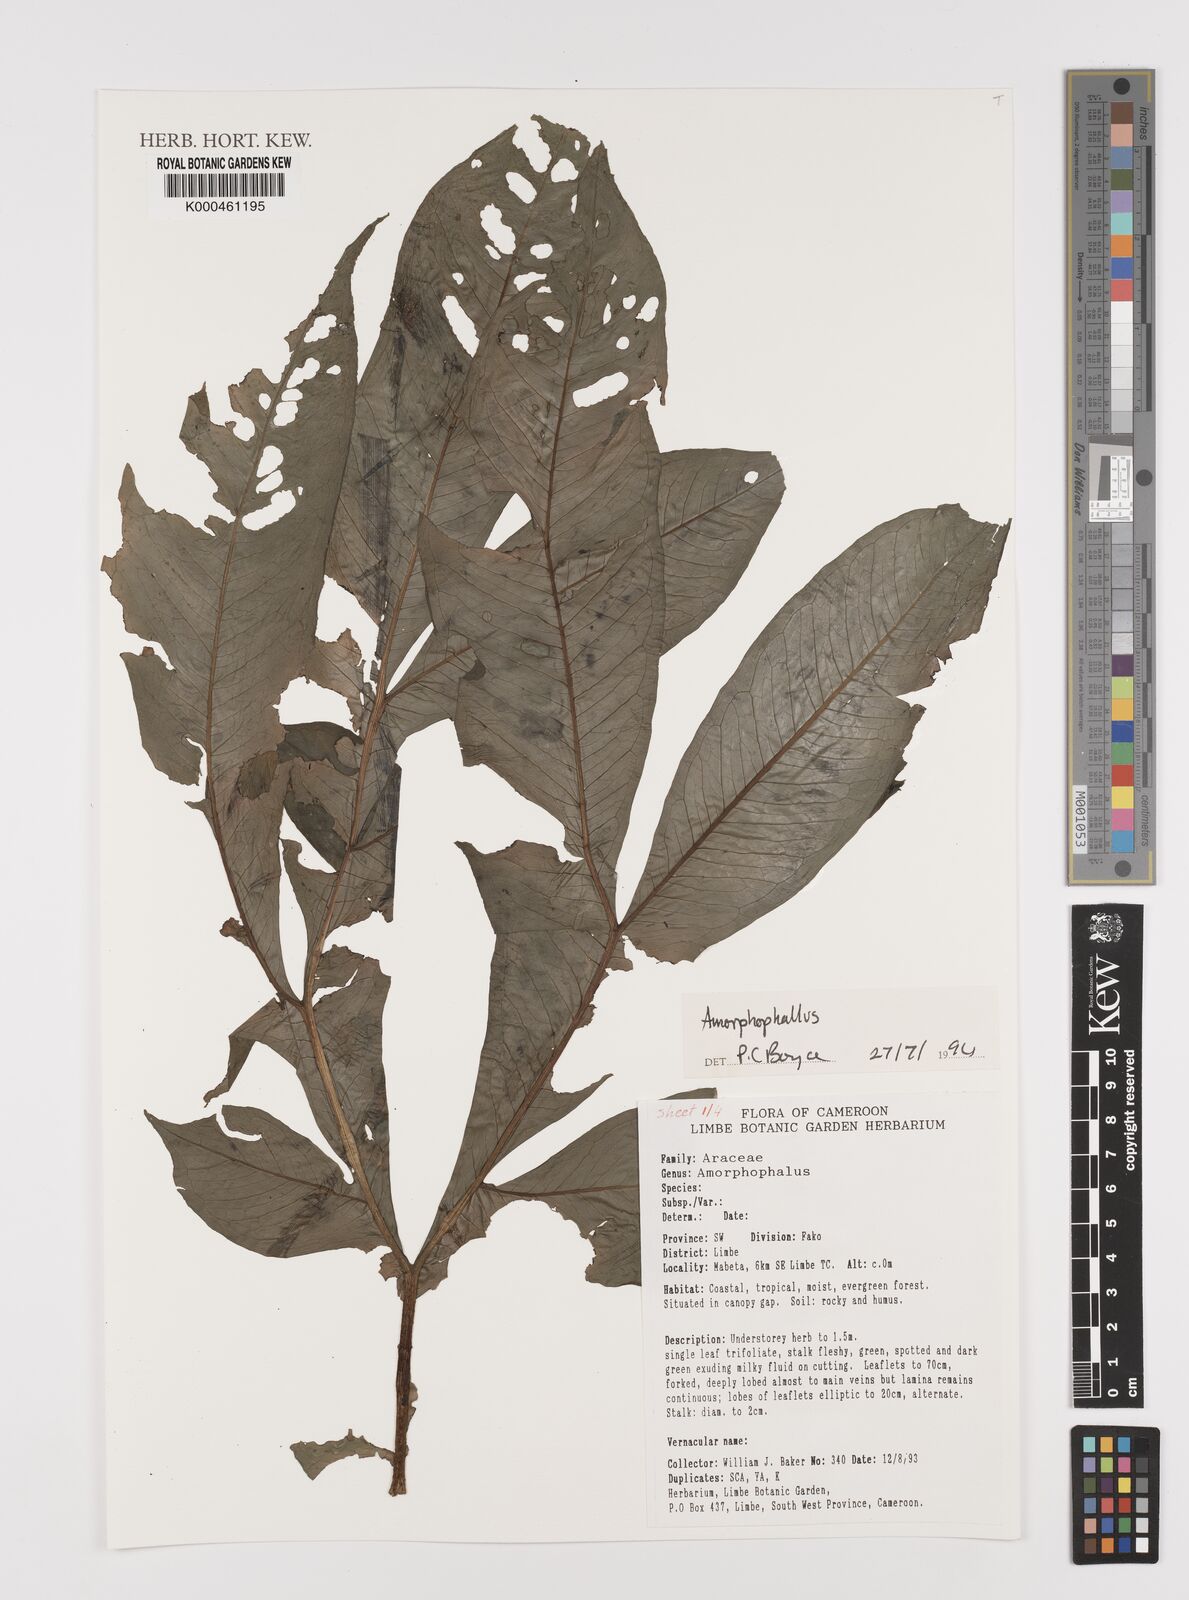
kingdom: Plantae
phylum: Tracheophyta
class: Liliopsida
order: Alismatales
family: Araceae
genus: Amorphophallus
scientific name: Amorphophallus
